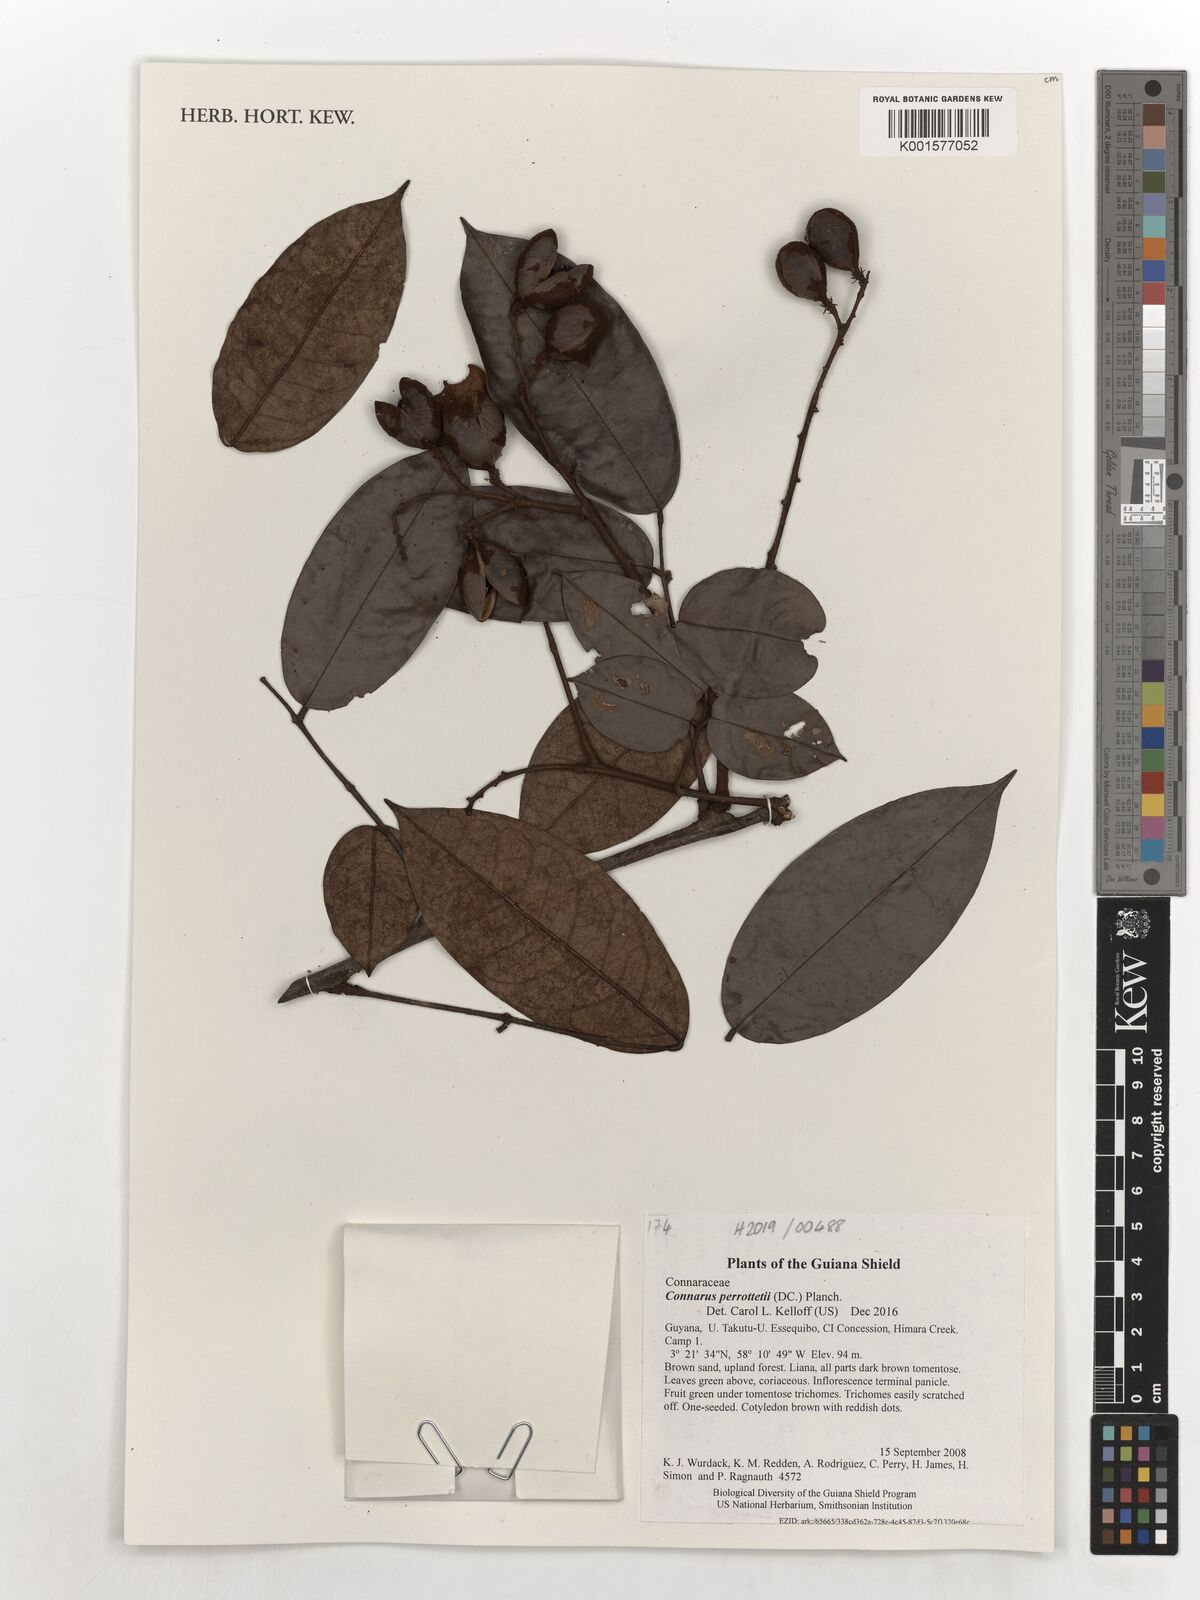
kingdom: Plantae
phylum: Tracheophyta
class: Magnoliopsida
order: Oxalidales
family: Connaraceae
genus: Connarus
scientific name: Connarus perrottetii
